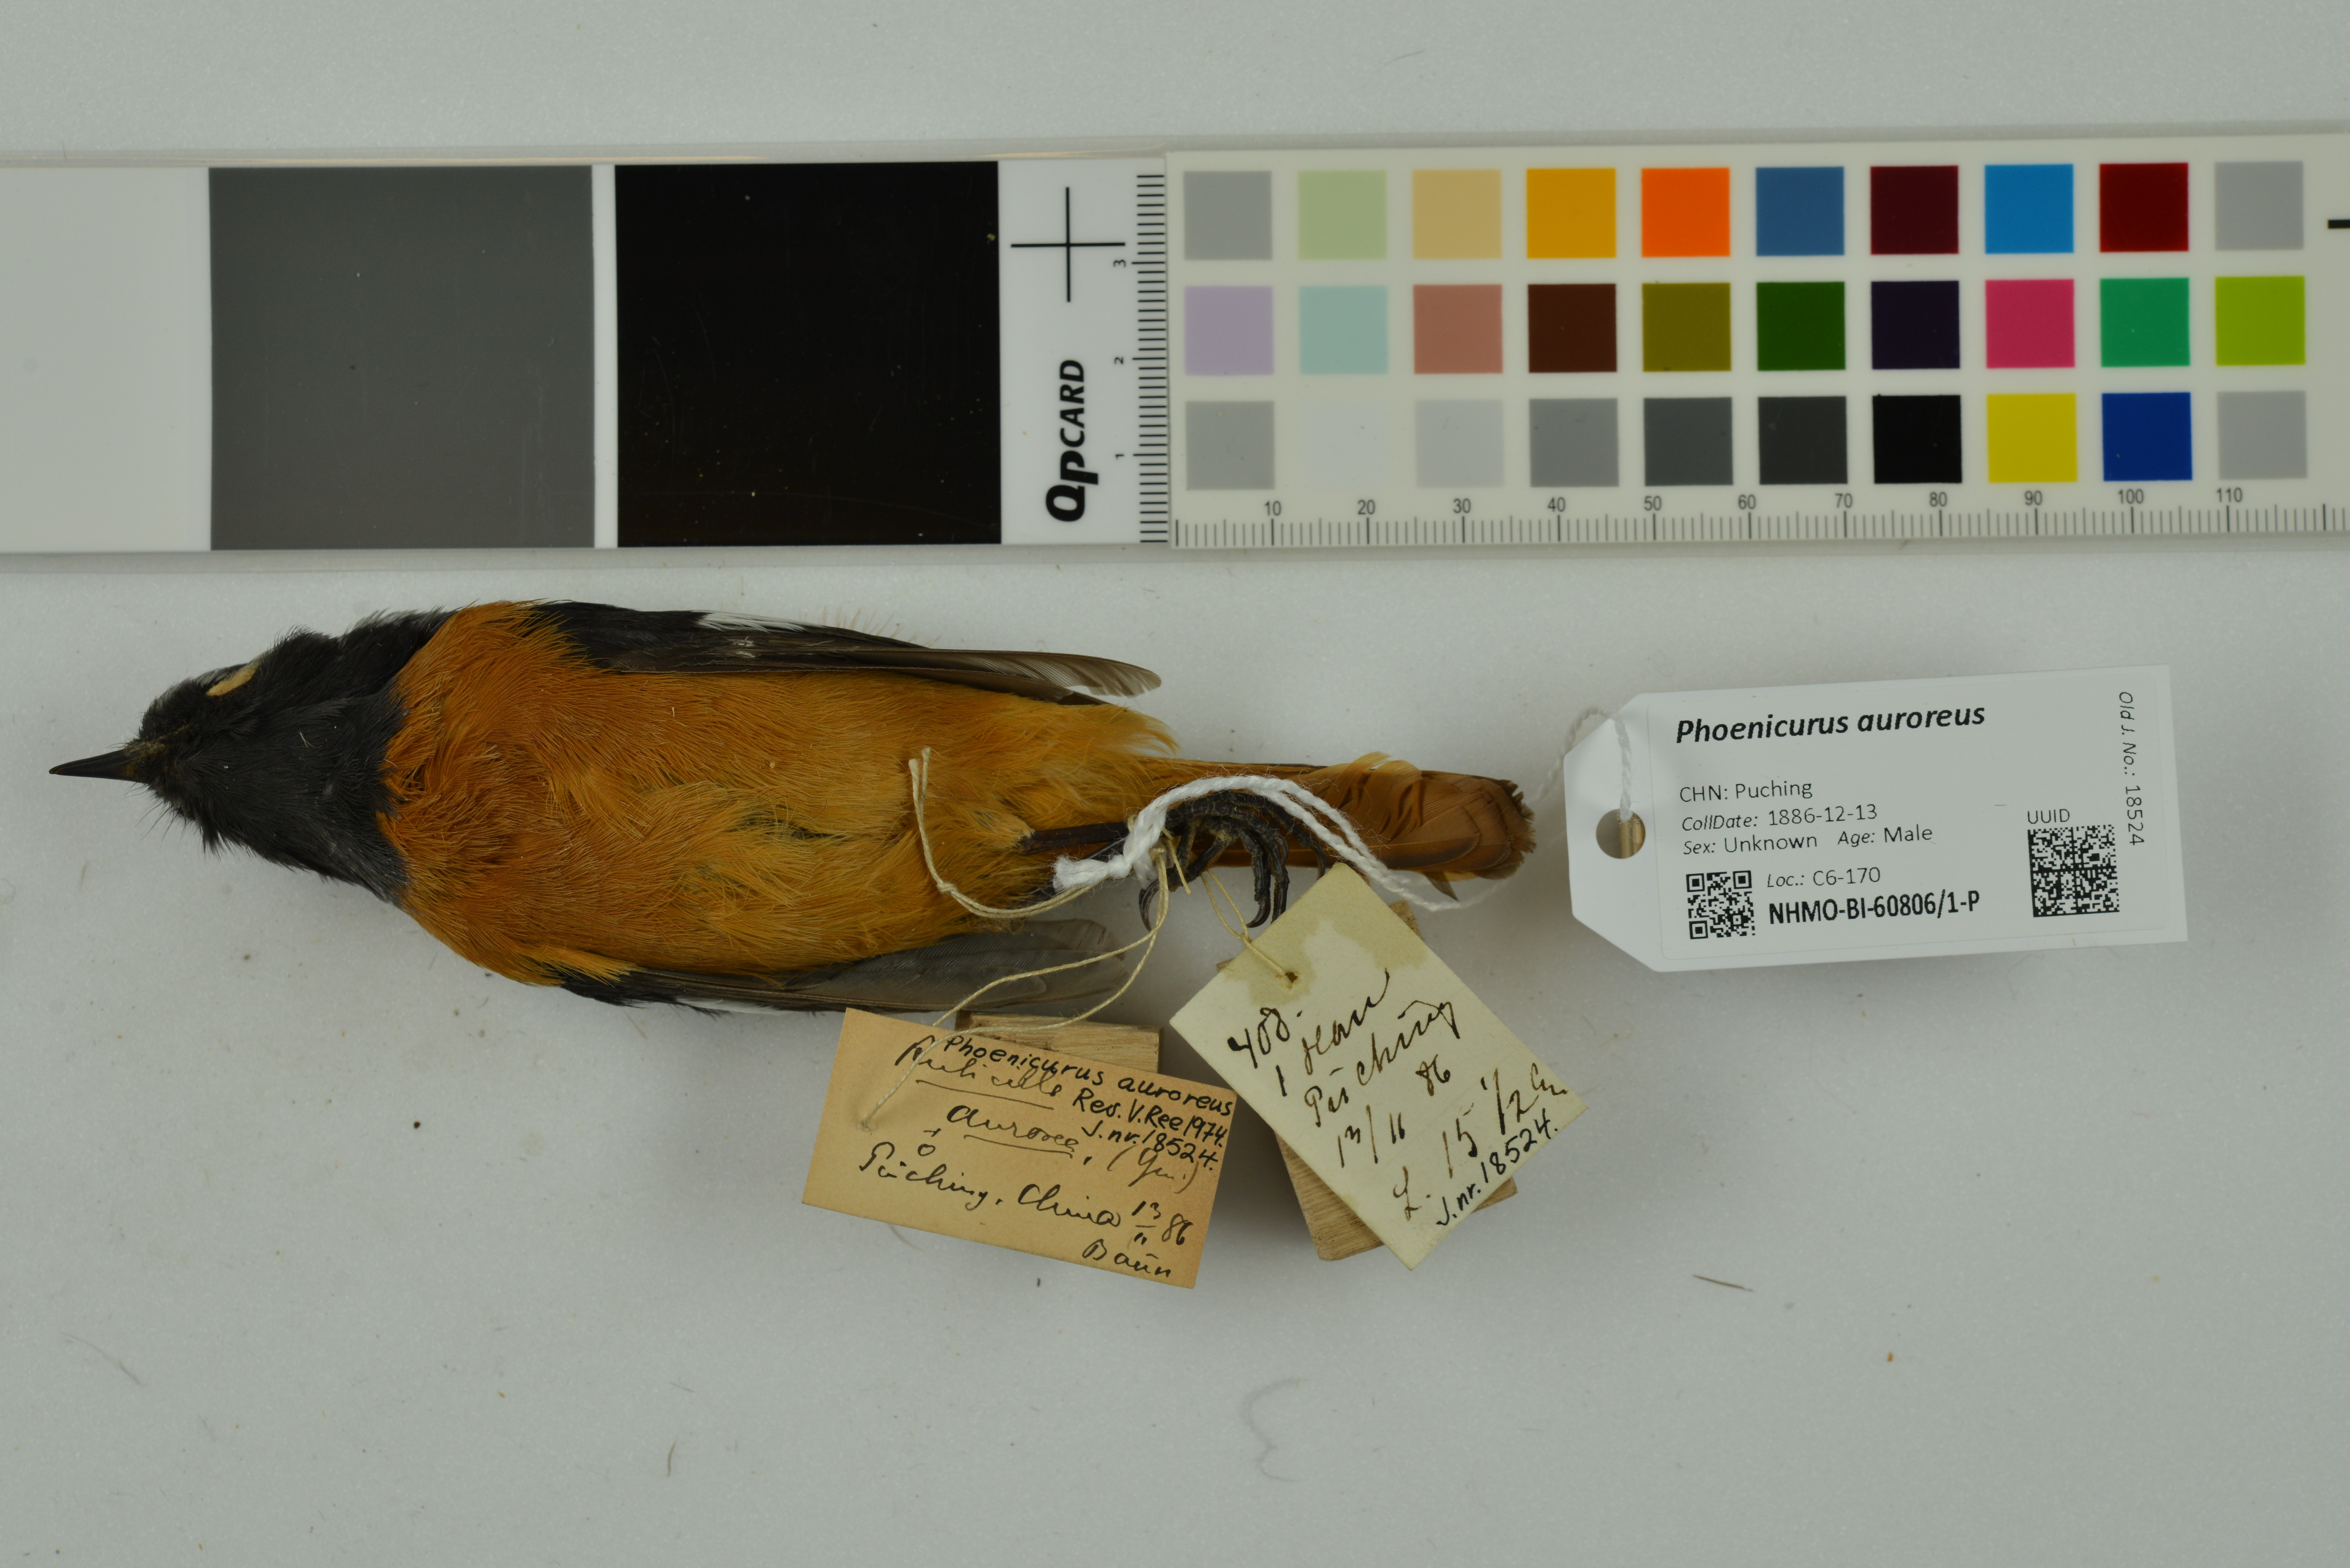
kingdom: Animalia
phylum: Chordata
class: Aves
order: Passeriformes
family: Muscicapidae
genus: Phoenicurus
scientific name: Phoenicurus auroreus
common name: Daurian redstart
